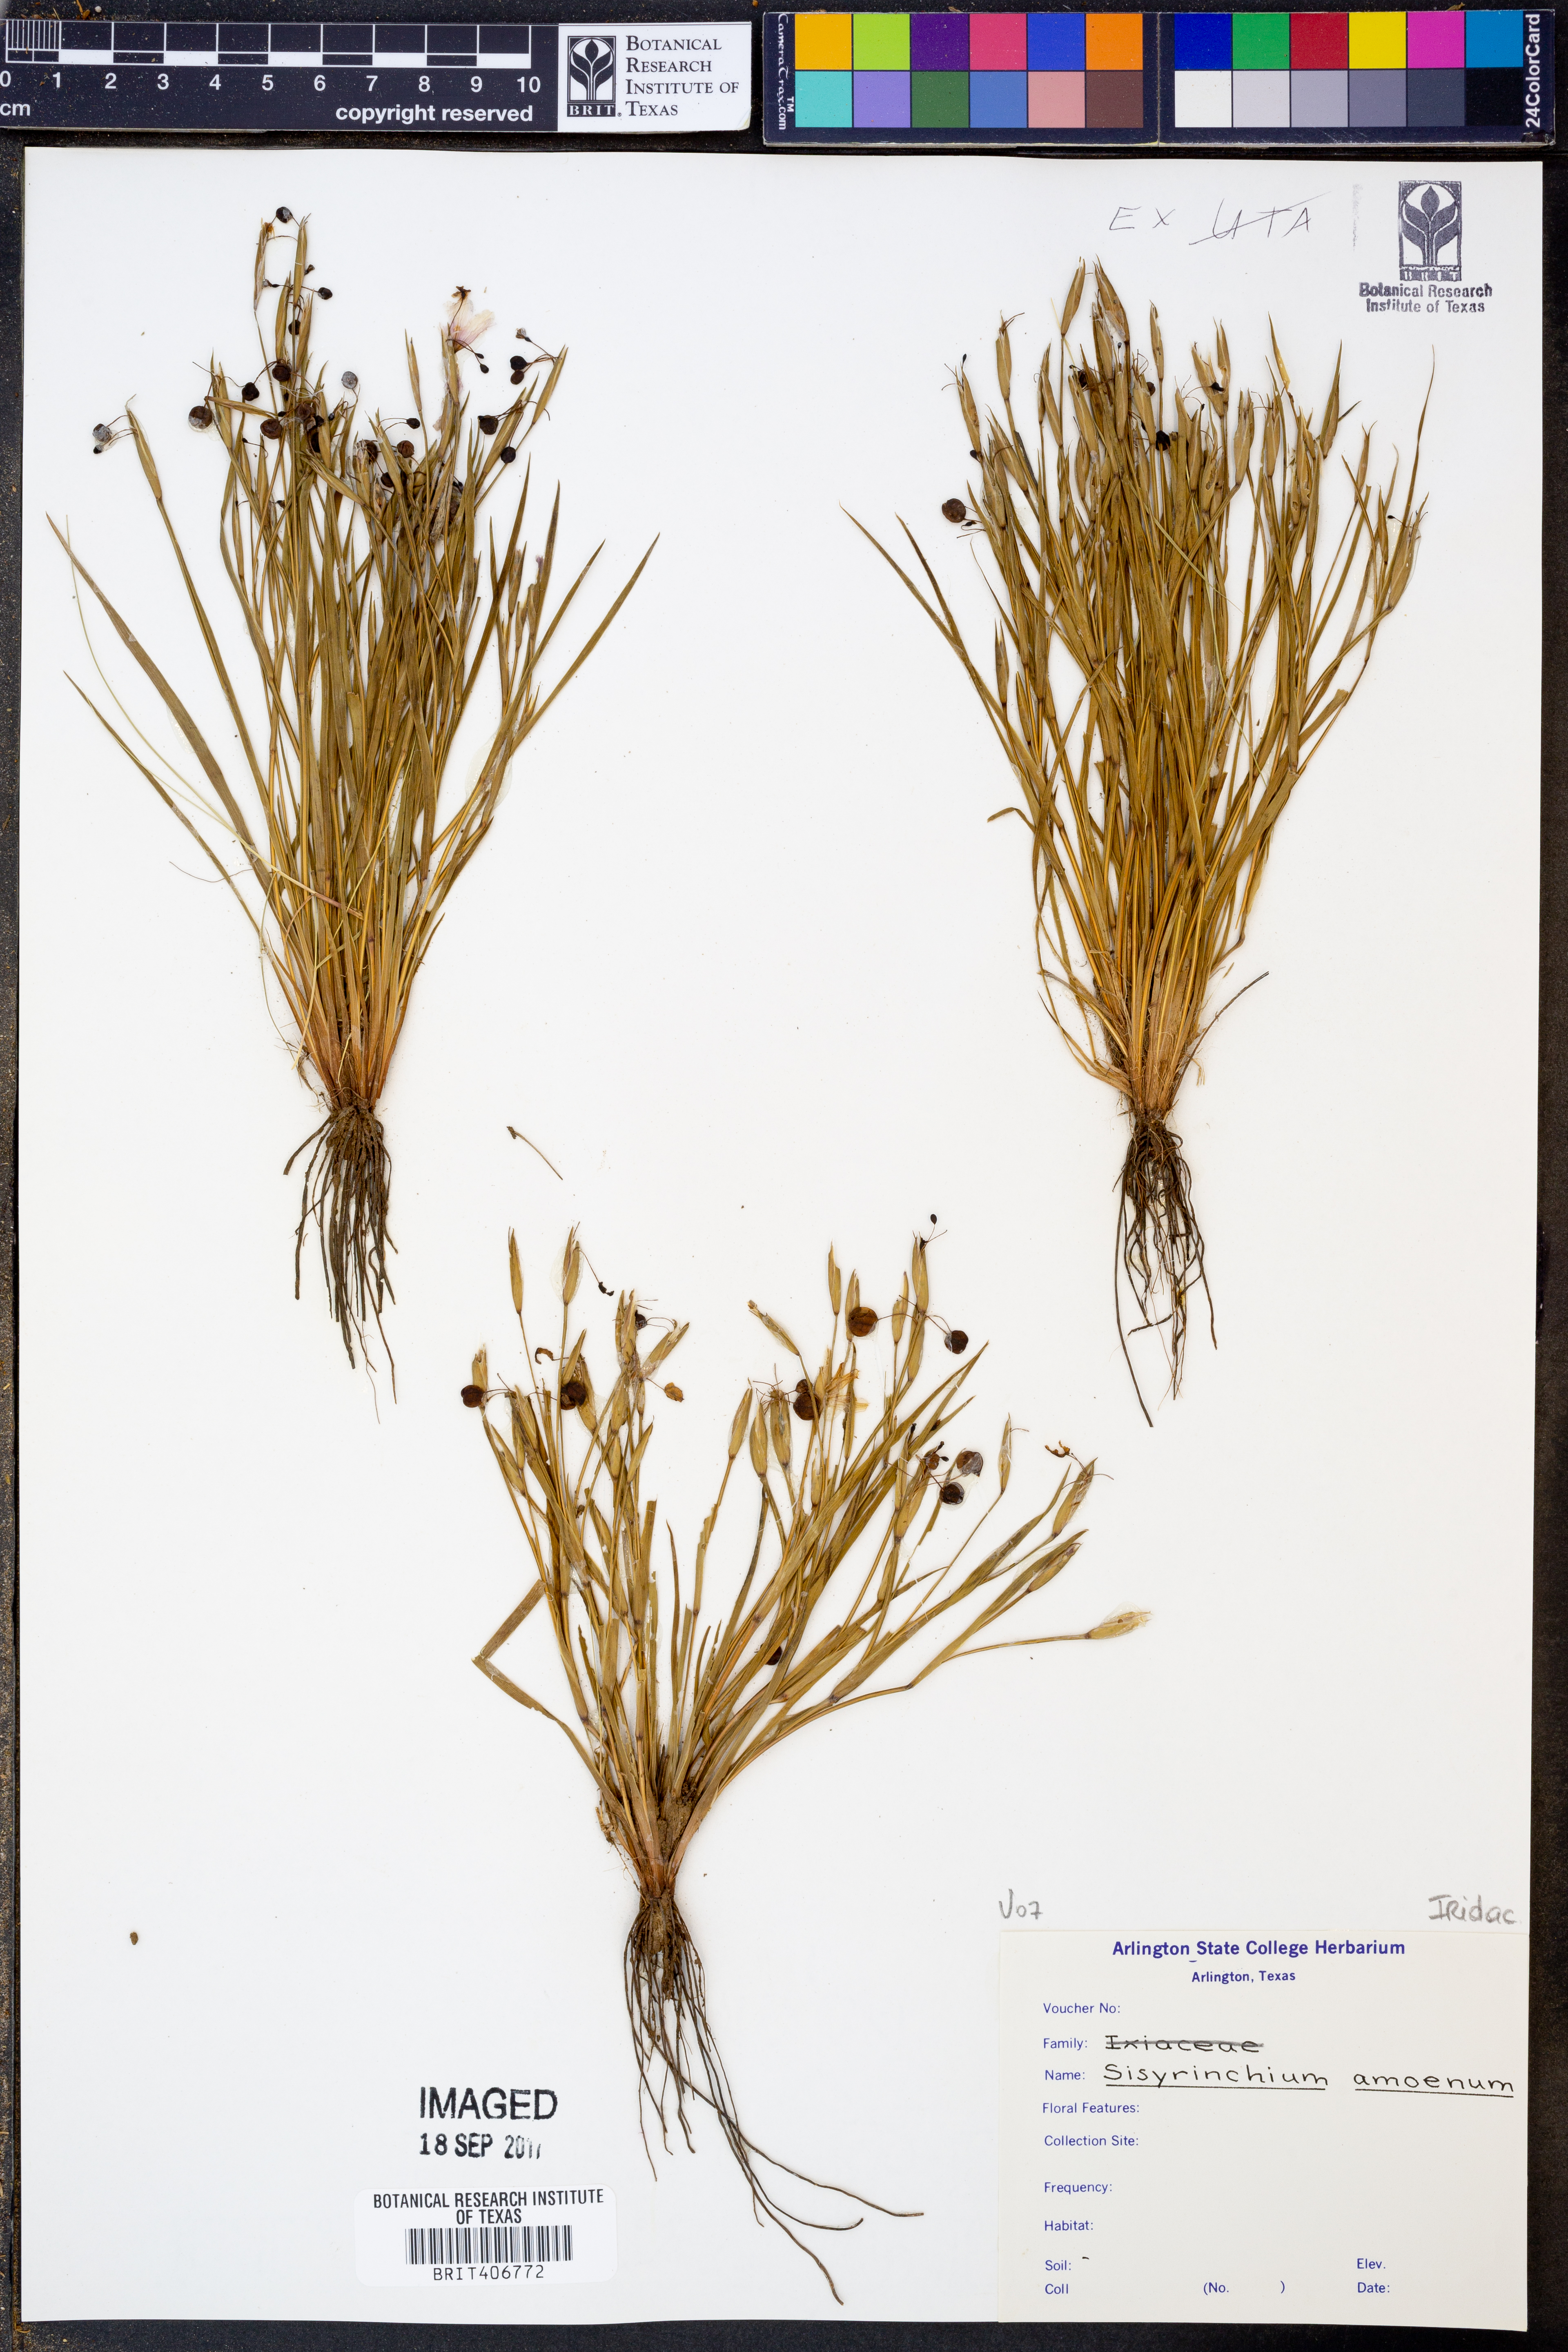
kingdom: Plantae
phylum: Tracheophyta
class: Liliopsida
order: Asparagales
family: Iridaceae
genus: Sisyrinchium
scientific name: Sisyrinchium ensigerum
